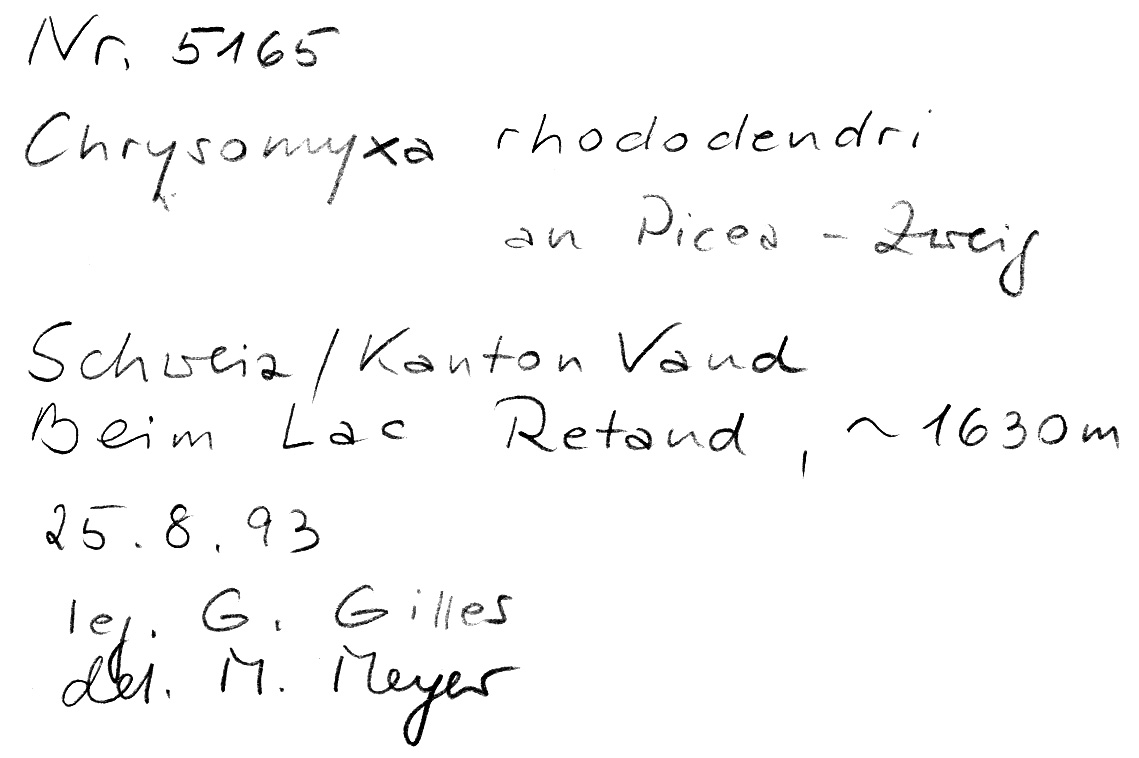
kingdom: Plantae
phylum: Tracheophyta
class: Pinopsida
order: Pinales
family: Pinaceae
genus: Picea
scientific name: Picea
